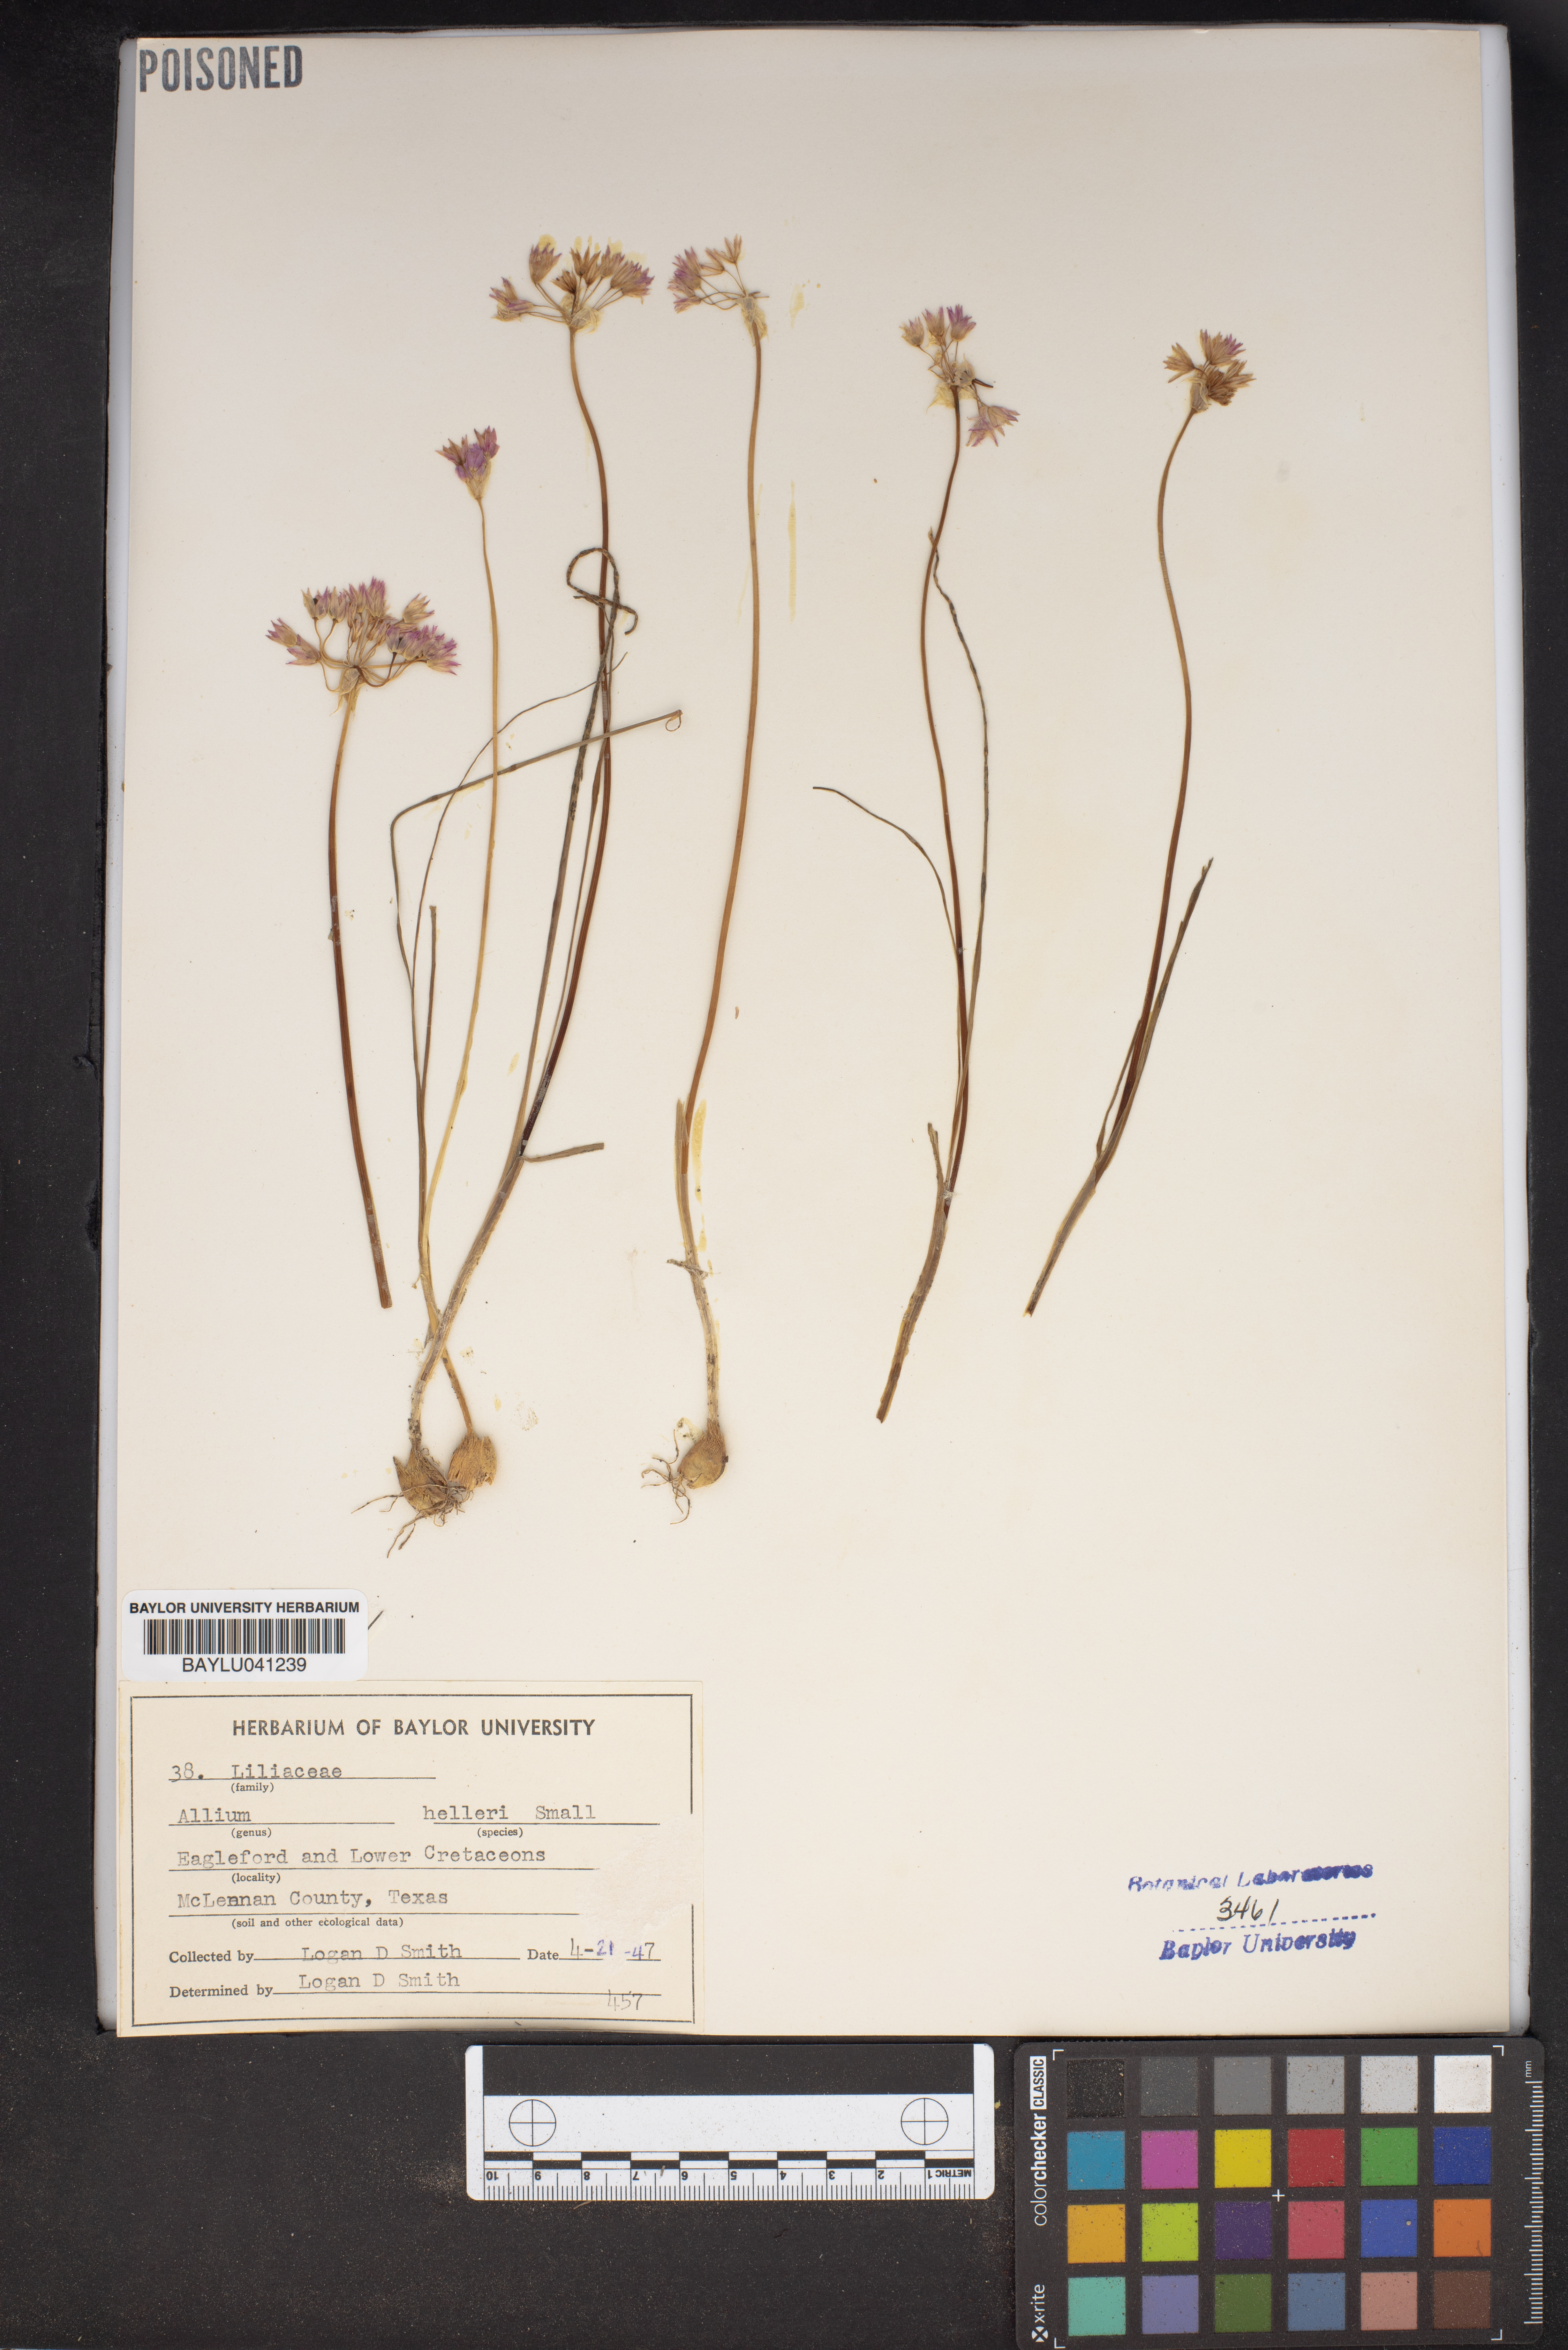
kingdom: Plantae
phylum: Tracheophyta
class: Liliopsida
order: Asparagales
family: Amaryllidaceae
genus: Allium
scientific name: Allium drummondii
